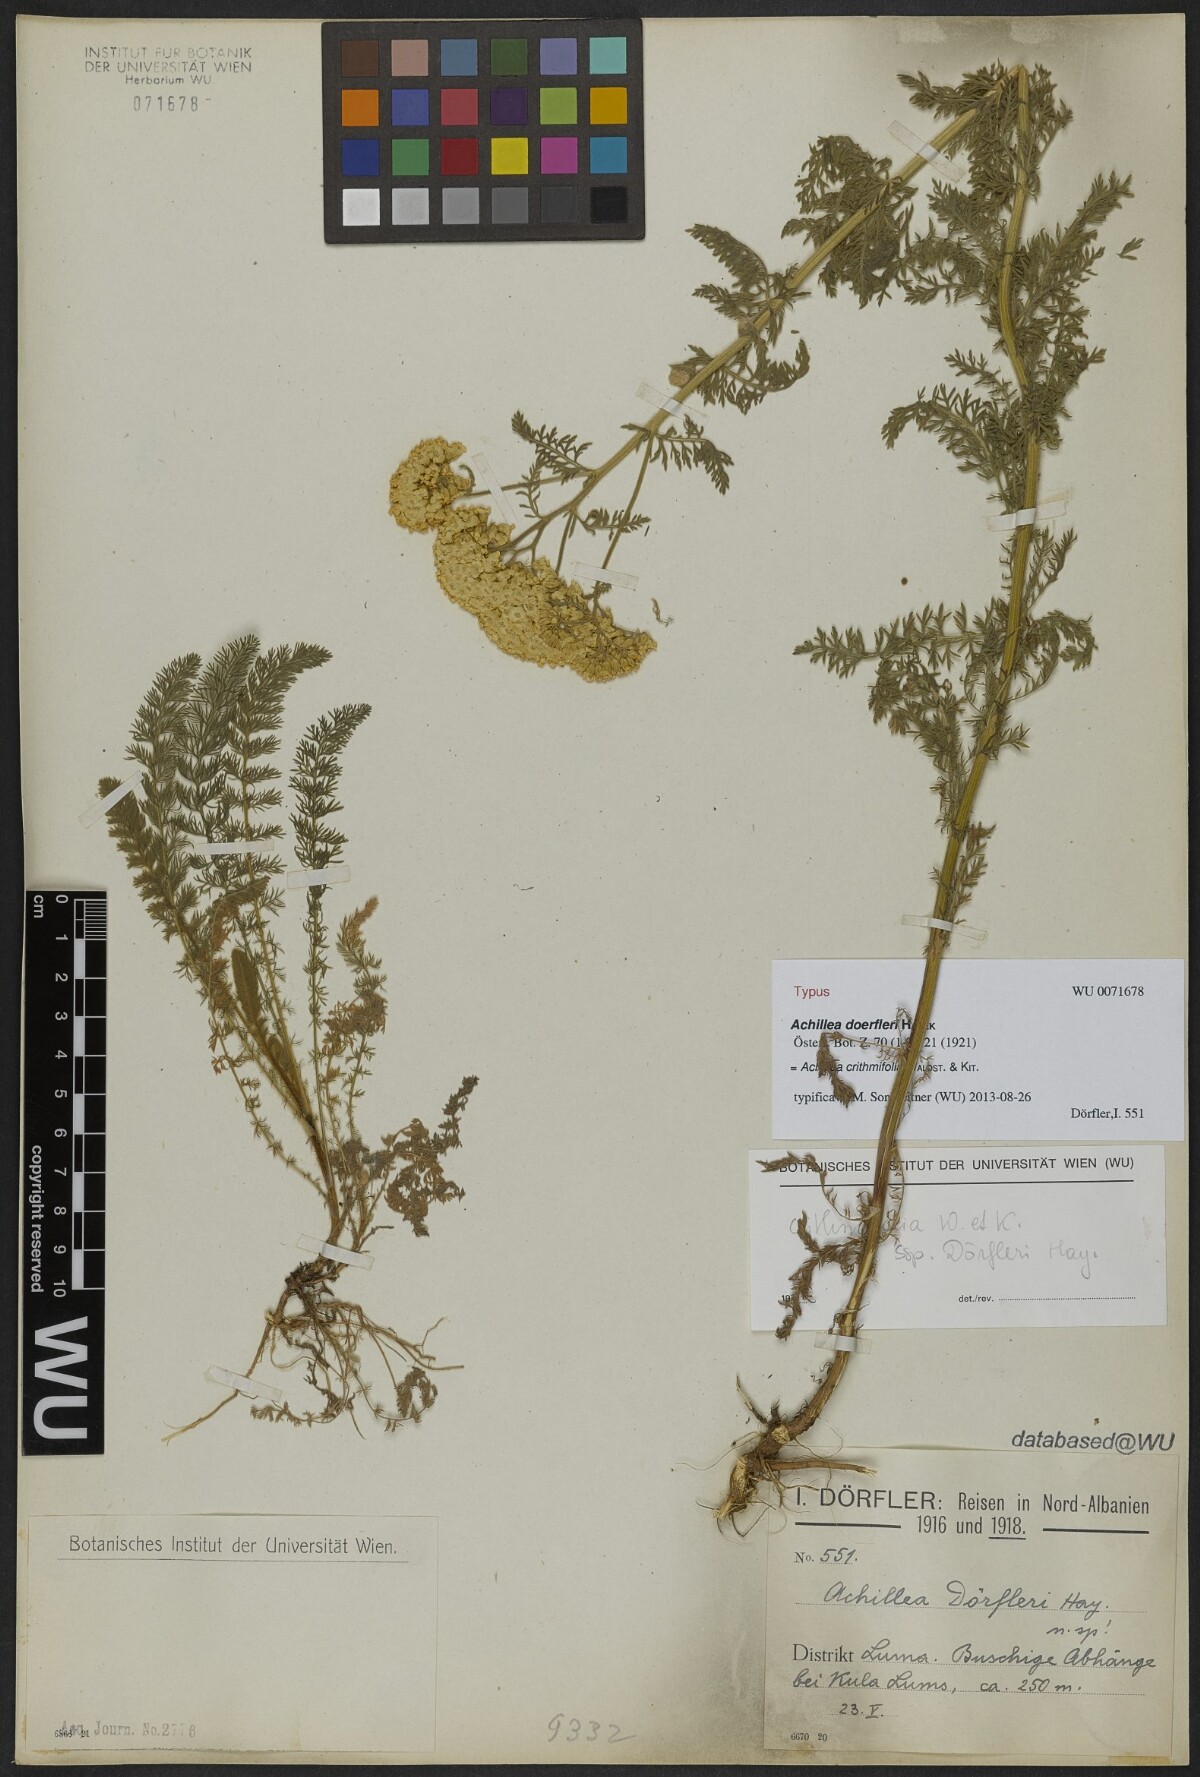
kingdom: Plantae
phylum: Tracheophyta
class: Magnoliopsida
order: Asterales
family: Asteraceae
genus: Achillea
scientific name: Achillea crithmifolia
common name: Yarrow
